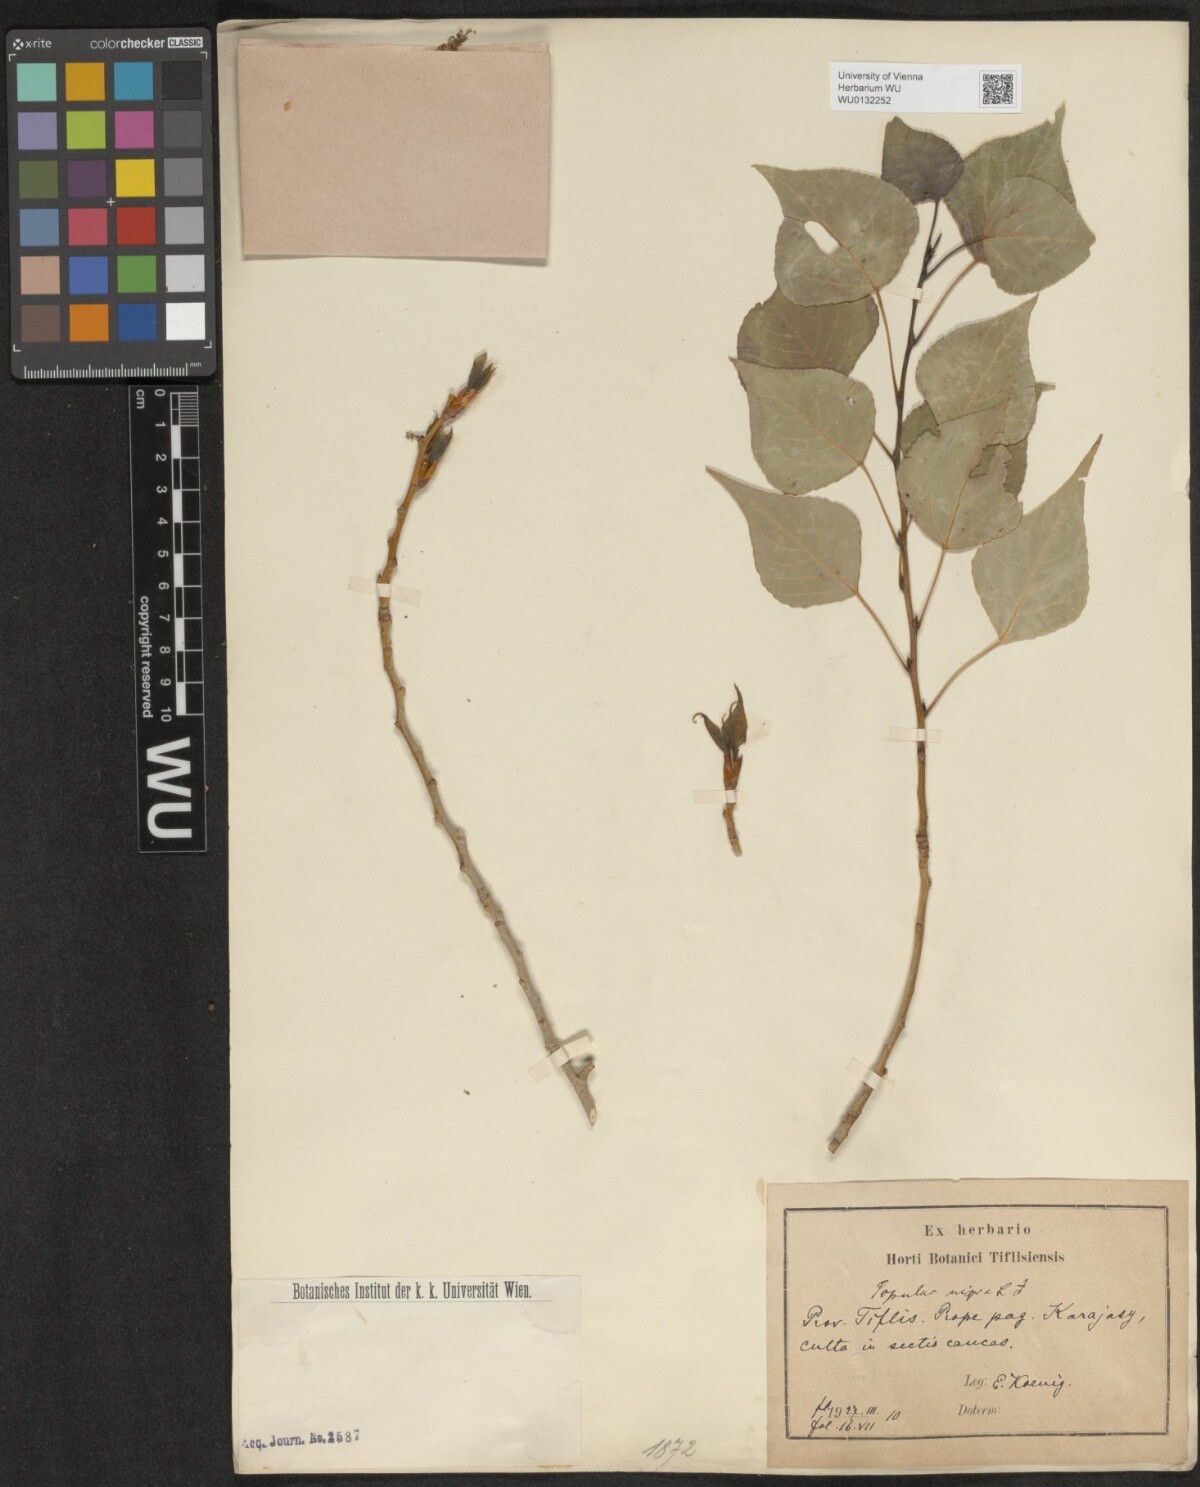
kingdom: Plantae
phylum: Tracheophyta
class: Magnoliopsida
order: Malpighiales
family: Salicaceae
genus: Populus
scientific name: Populus nigra
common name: Black poplar
